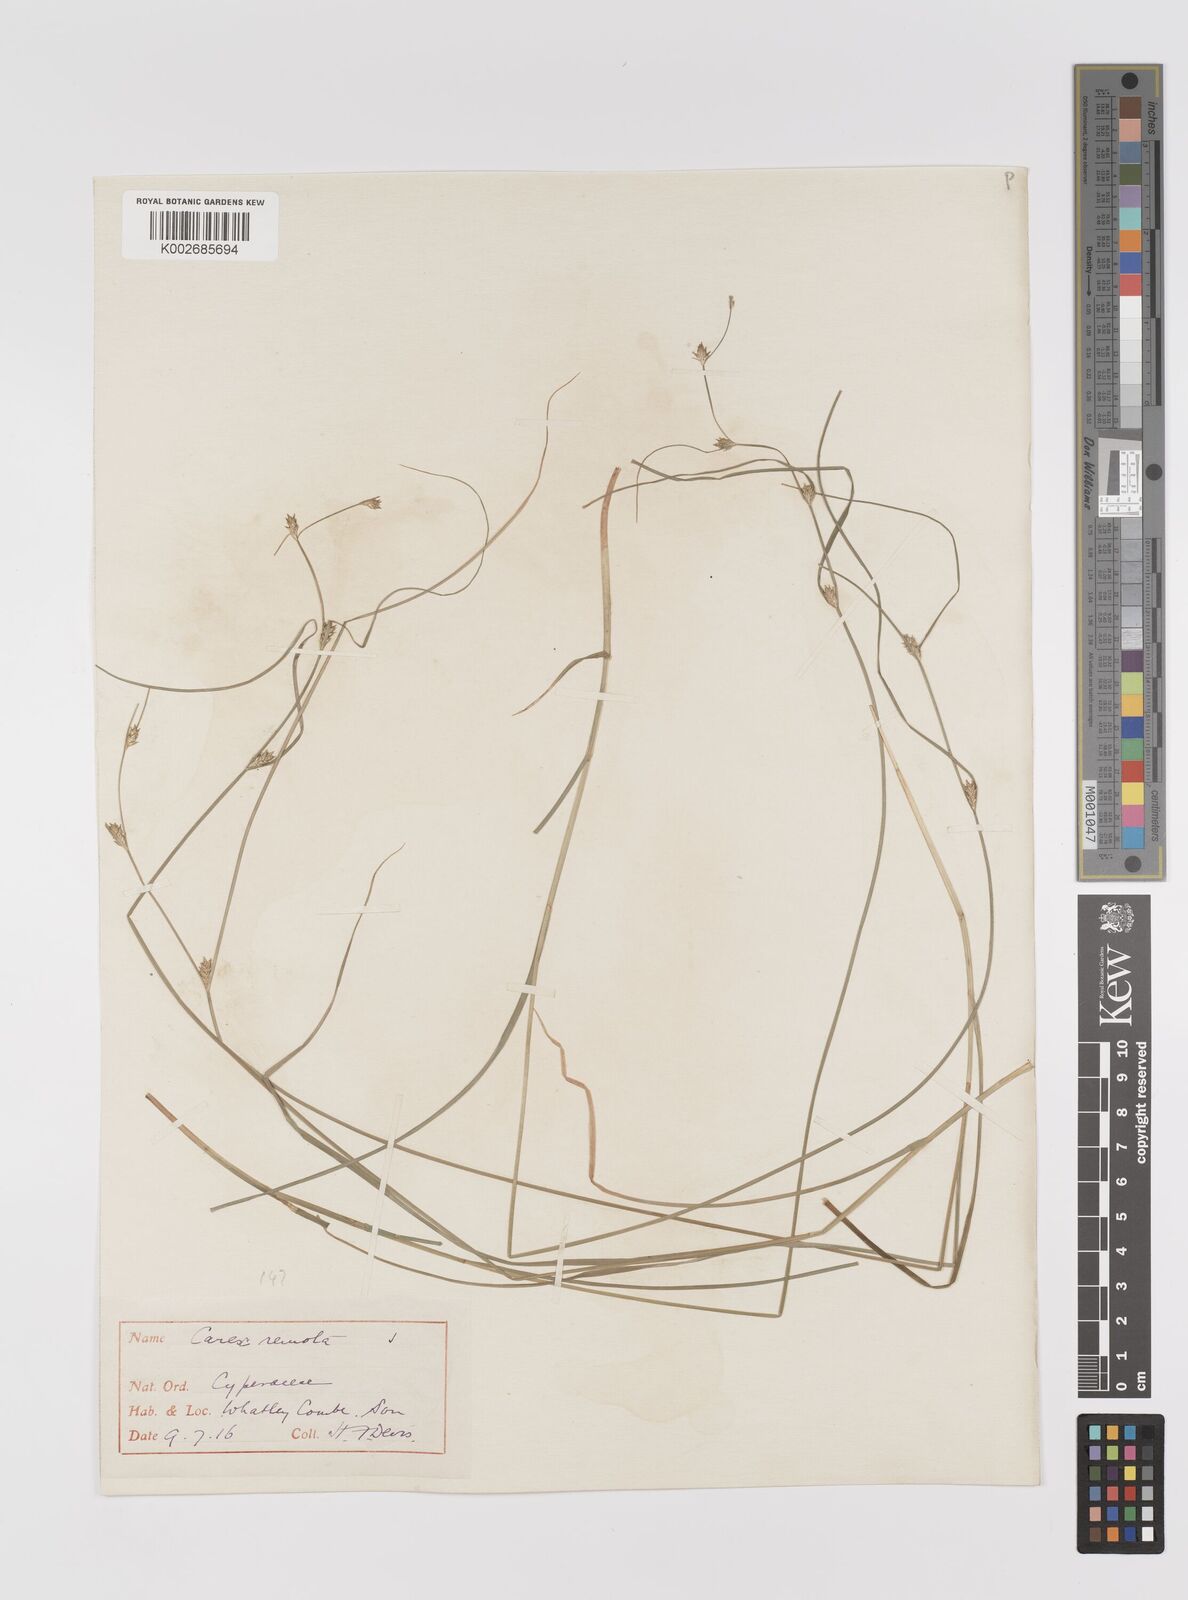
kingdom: Plantae
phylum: Tracheophyta
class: Liliopsida
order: Poales
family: Cyperaceae
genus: Carex
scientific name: Carex remota
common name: Remote sedge
